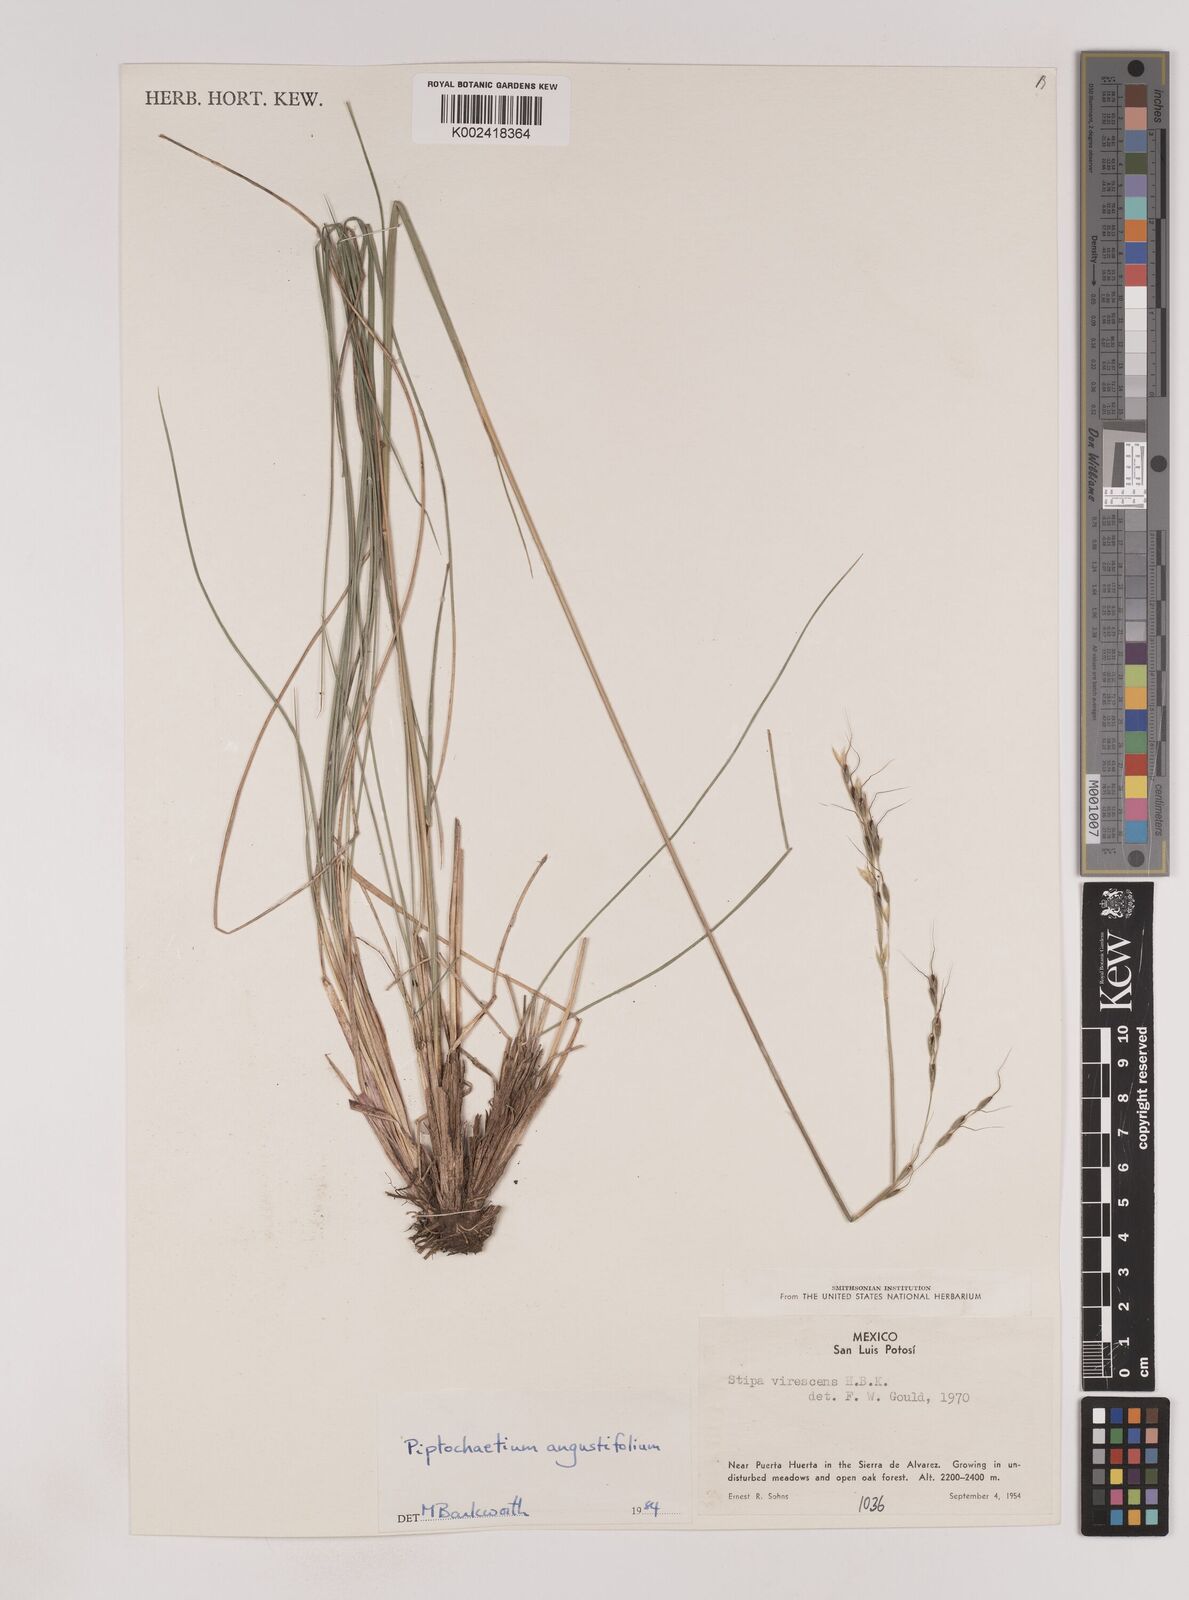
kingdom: Plantae
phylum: Tracheophyta
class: Liliopsida
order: Poales
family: Poaceae
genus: Piptochaetium
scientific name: Piptochaetium angustifolium
